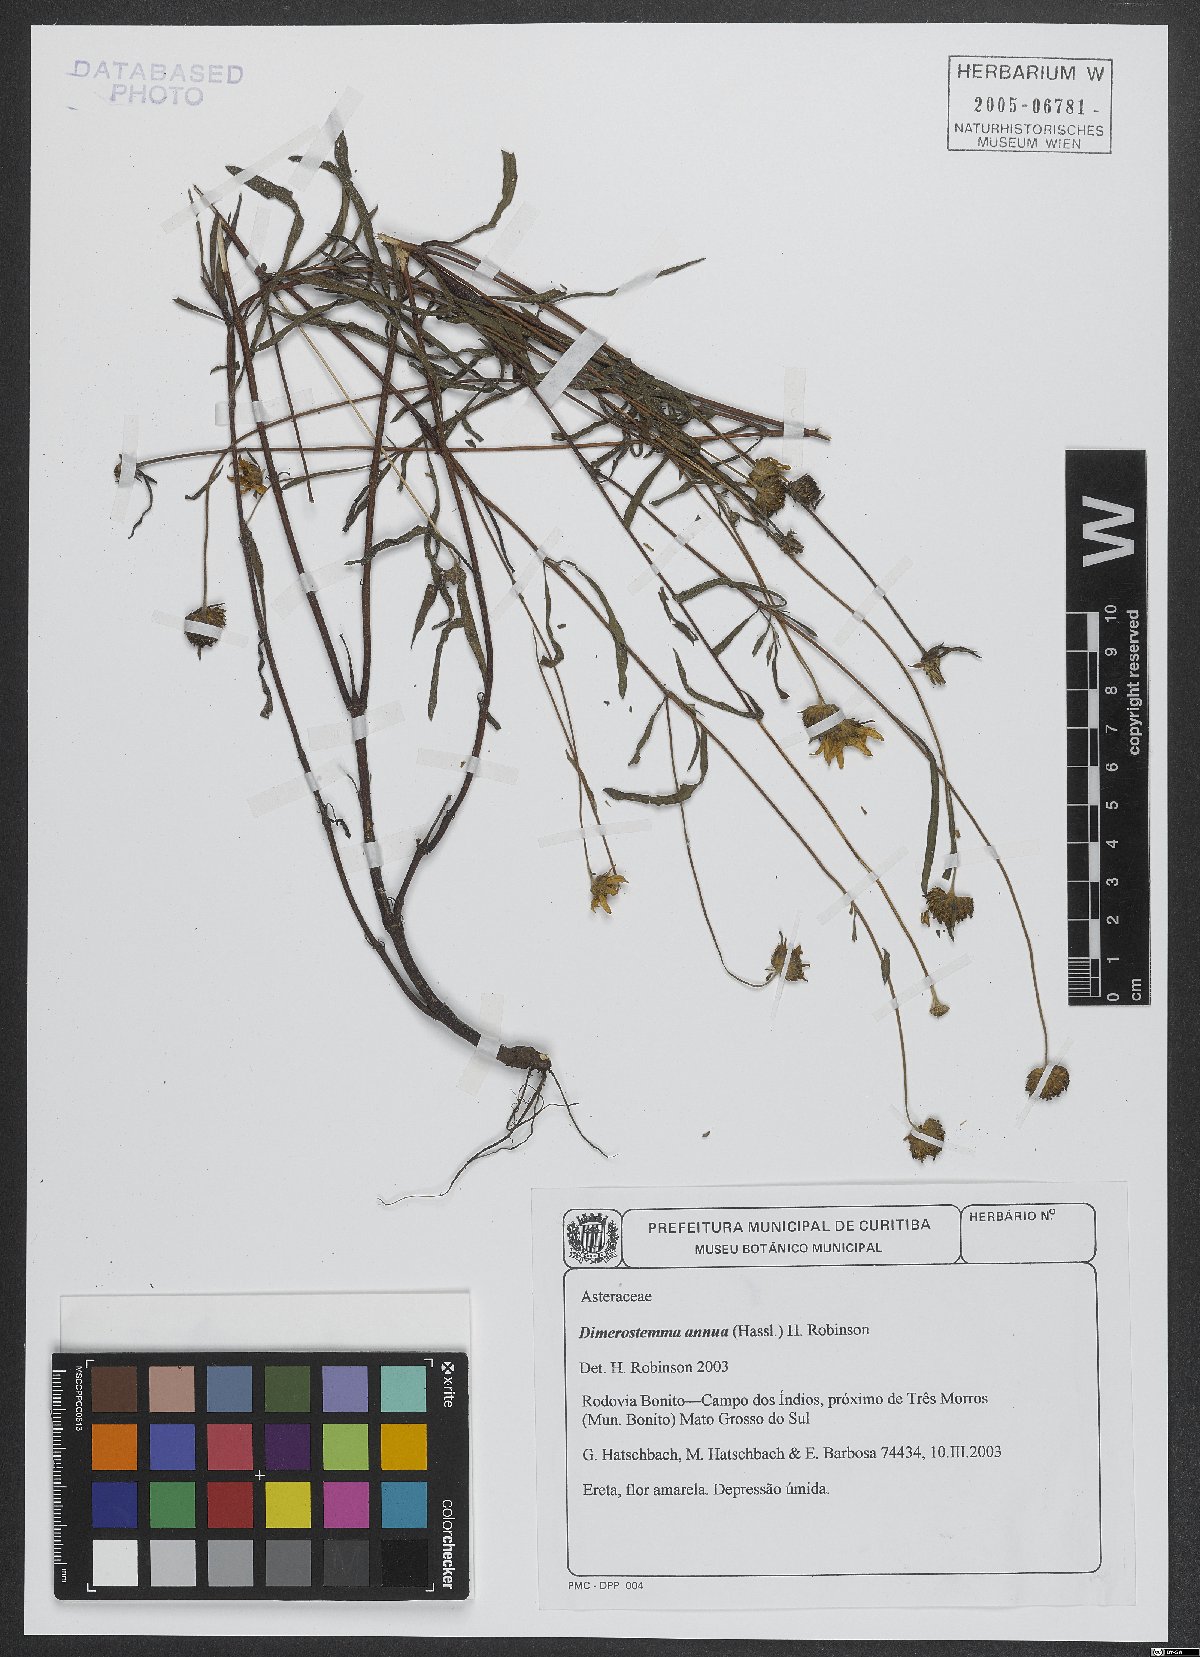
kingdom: Plantae
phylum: Tracheophyta
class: Magnoliopsida
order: Asterales
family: Asteraceae
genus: Dimerostemma
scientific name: Dimerostemma annuum
